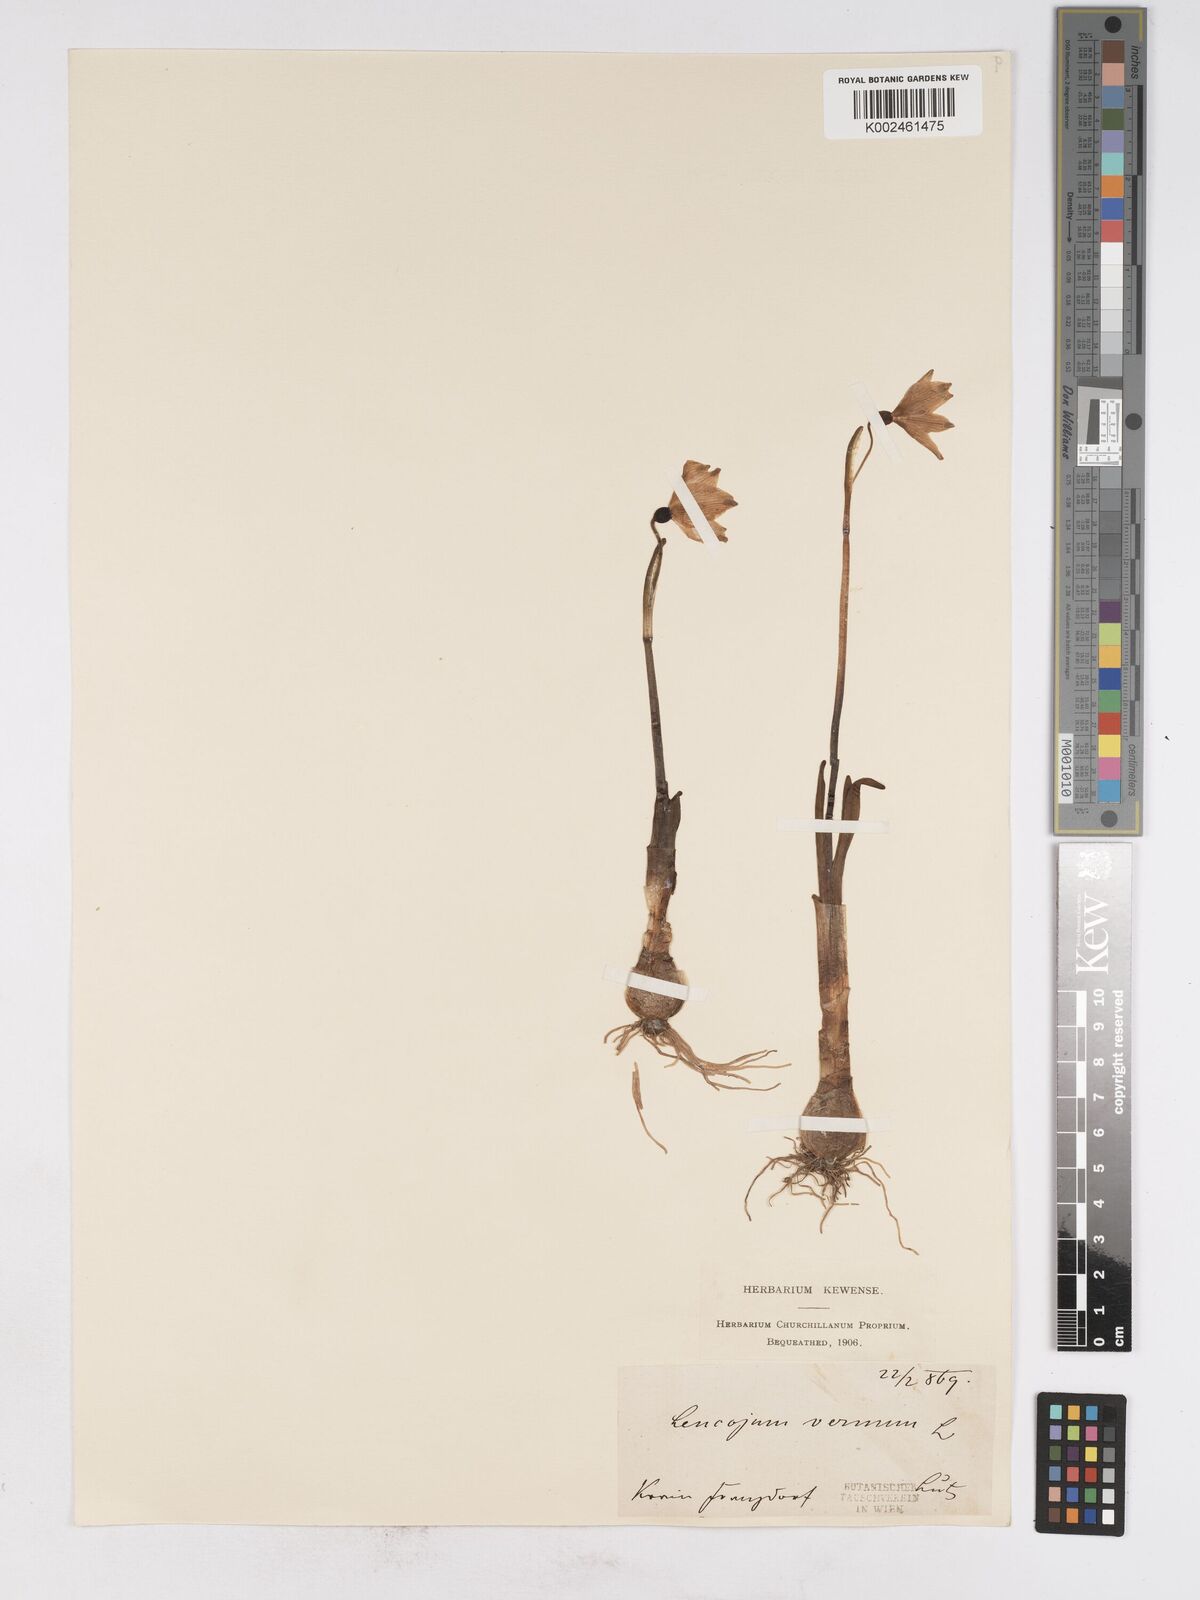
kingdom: Plantae
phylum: Tracheophyta
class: Liliopsida
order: Asparagales
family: Amaryllidaceae
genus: Leucojum
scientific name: Leucojum vernum
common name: Spring snowflake
